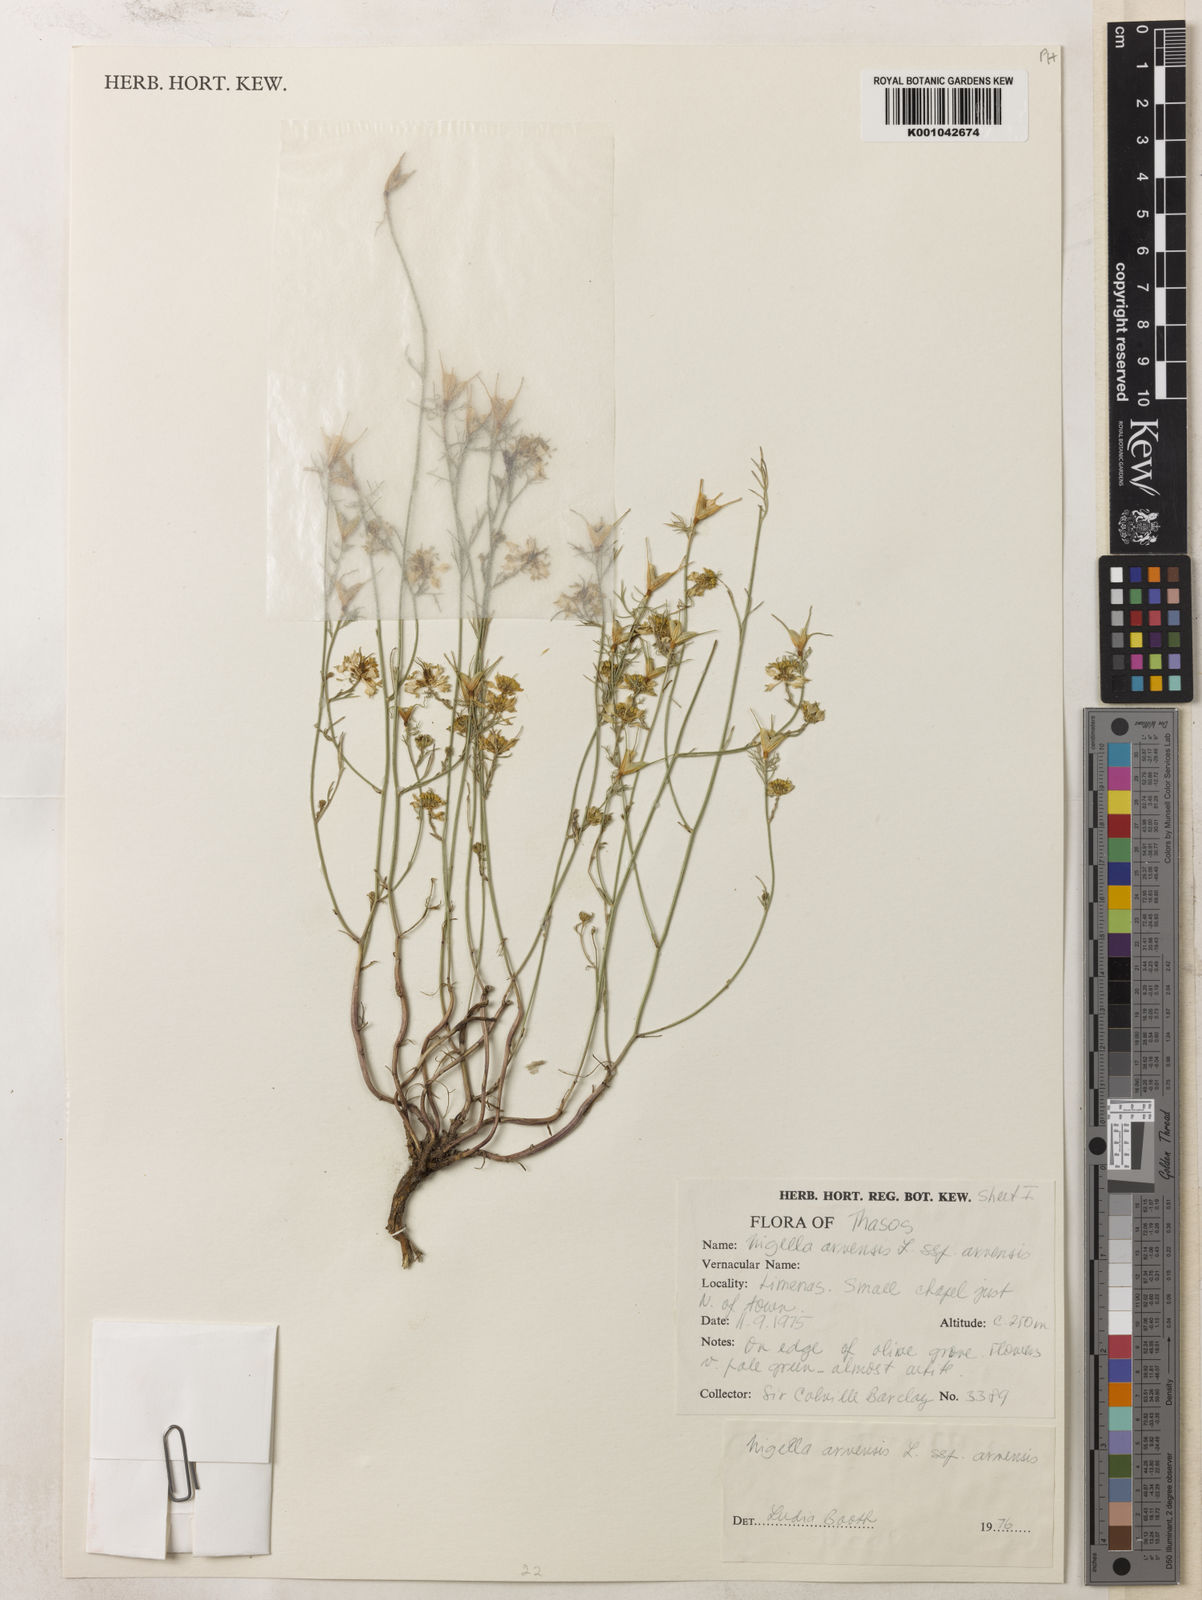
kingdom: Plantae
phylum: Tracheophyta
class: Magnoliopsida
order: Ranunculales
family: Ranunculaceae
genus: Nigella
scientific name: Nigella arvensis
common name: Wild fennel-flower
